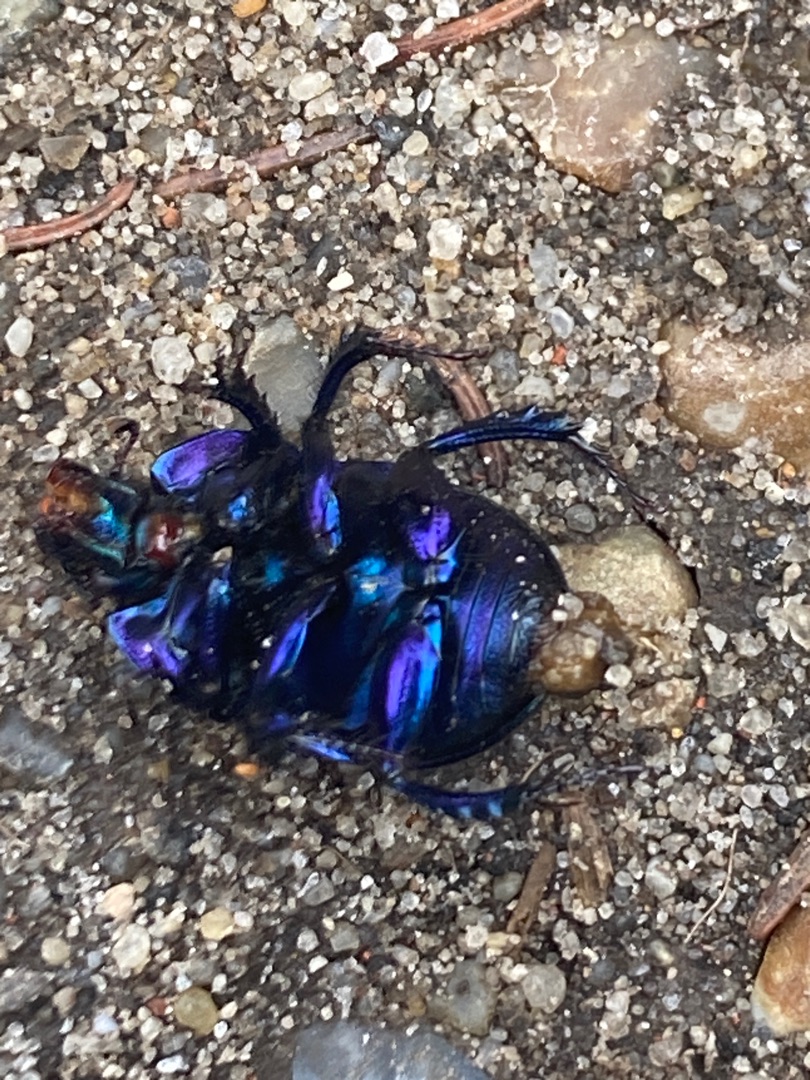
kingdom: Animalia
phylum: Arthropoda
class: Insecta
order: Coleoptera
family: Geotrupidae
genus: Anoplotrupes
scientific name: Anoplotrupes stercorosus
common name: Skovskarnbasse
